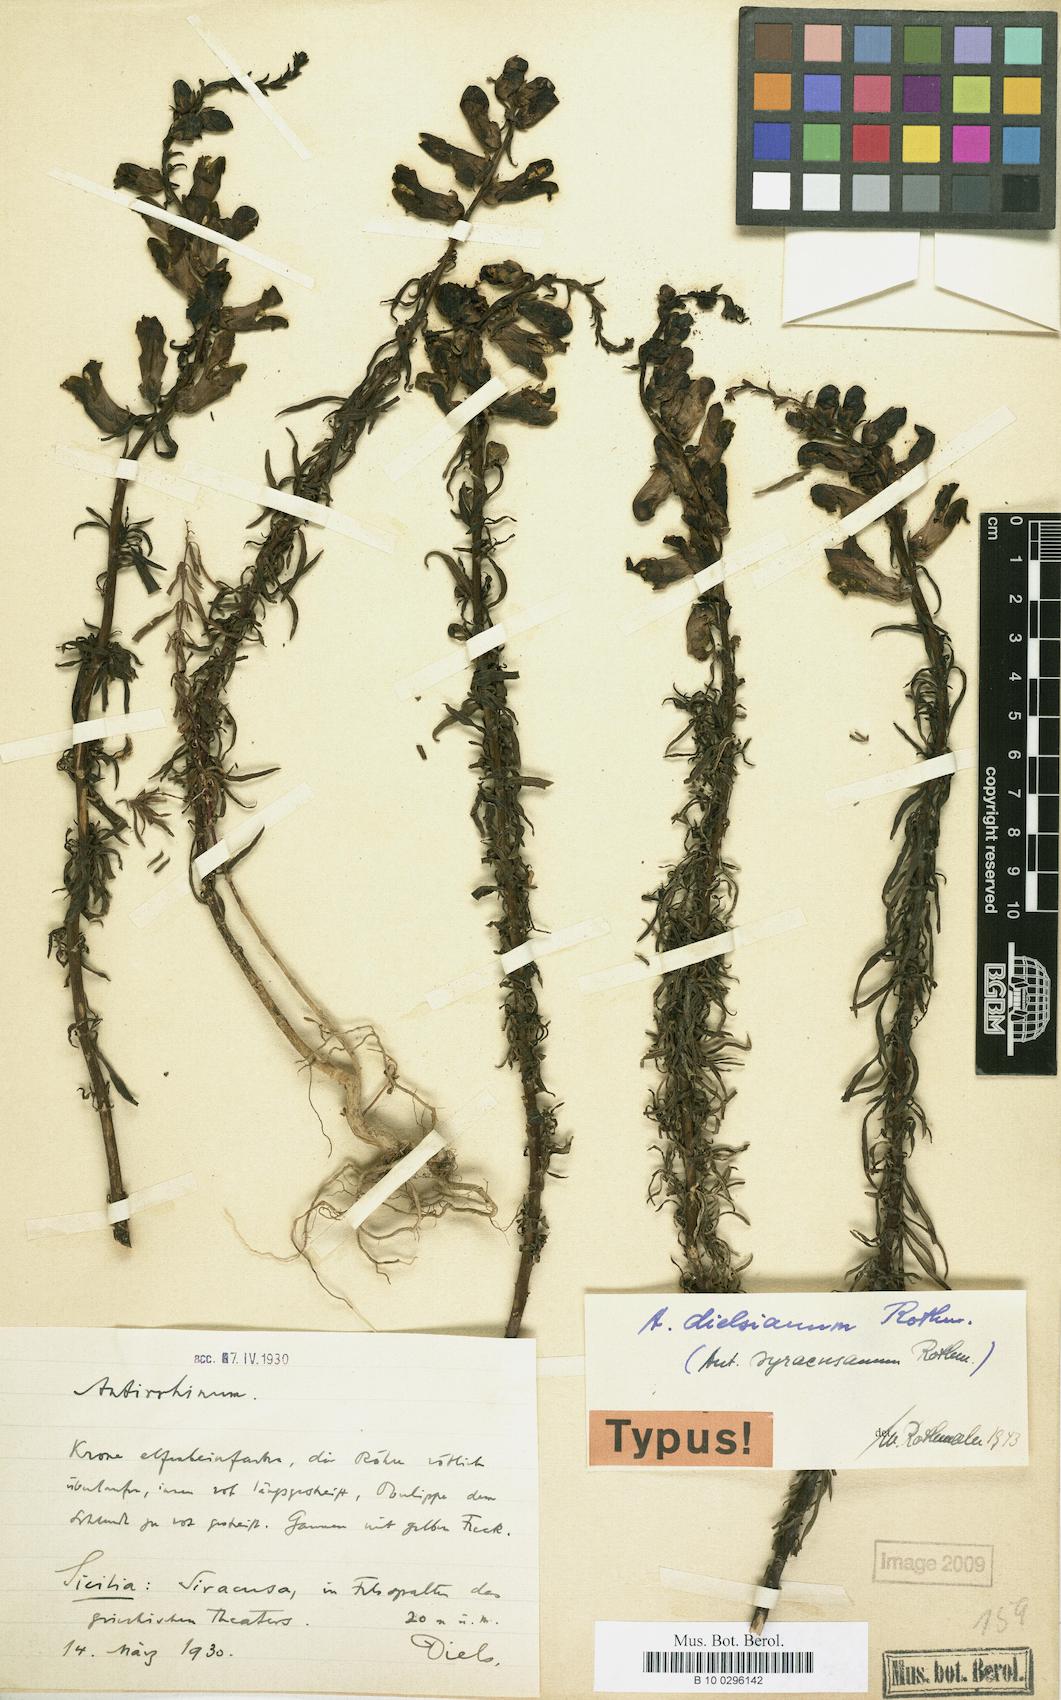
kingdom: Plantae
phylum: Tracheophyta
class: Magnoliopsida
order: Lamiales
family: Plantaginaceae
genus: Antirrhinum
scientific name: Antirrhinum siculum
